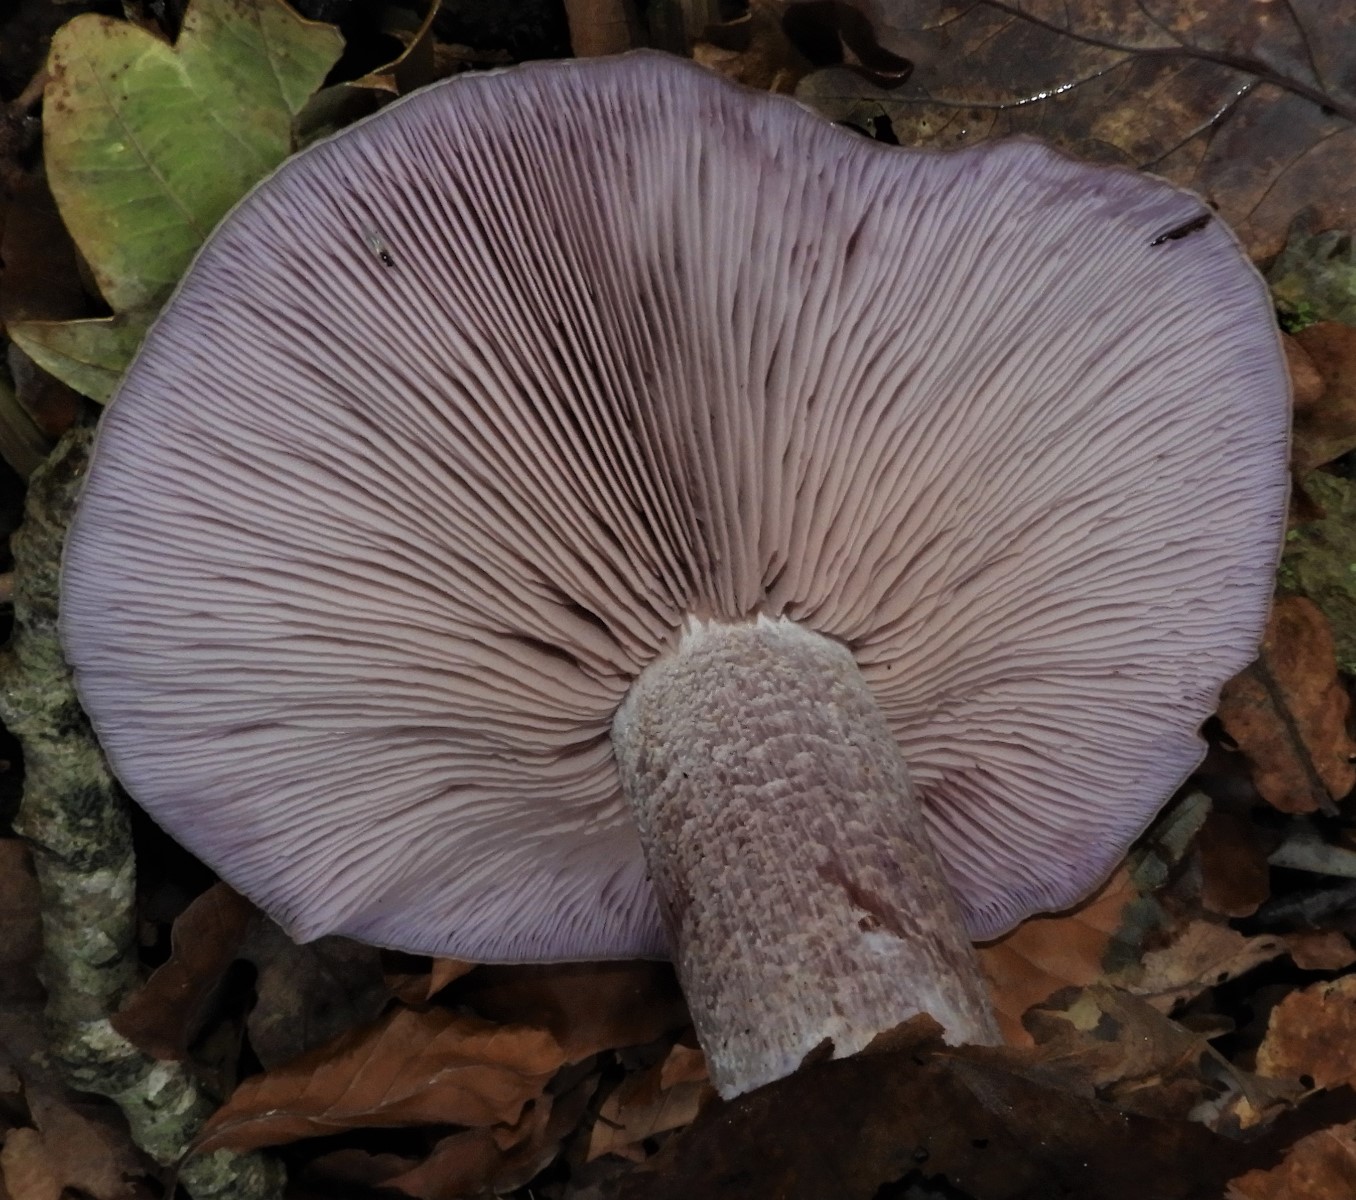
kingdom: Fungi
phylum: Basidiomycota
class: Agaricomycetes
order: Agaricales
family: Tricholomataceae
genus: Lepista
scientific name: Lepista nuda
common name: violet hekseringshat
